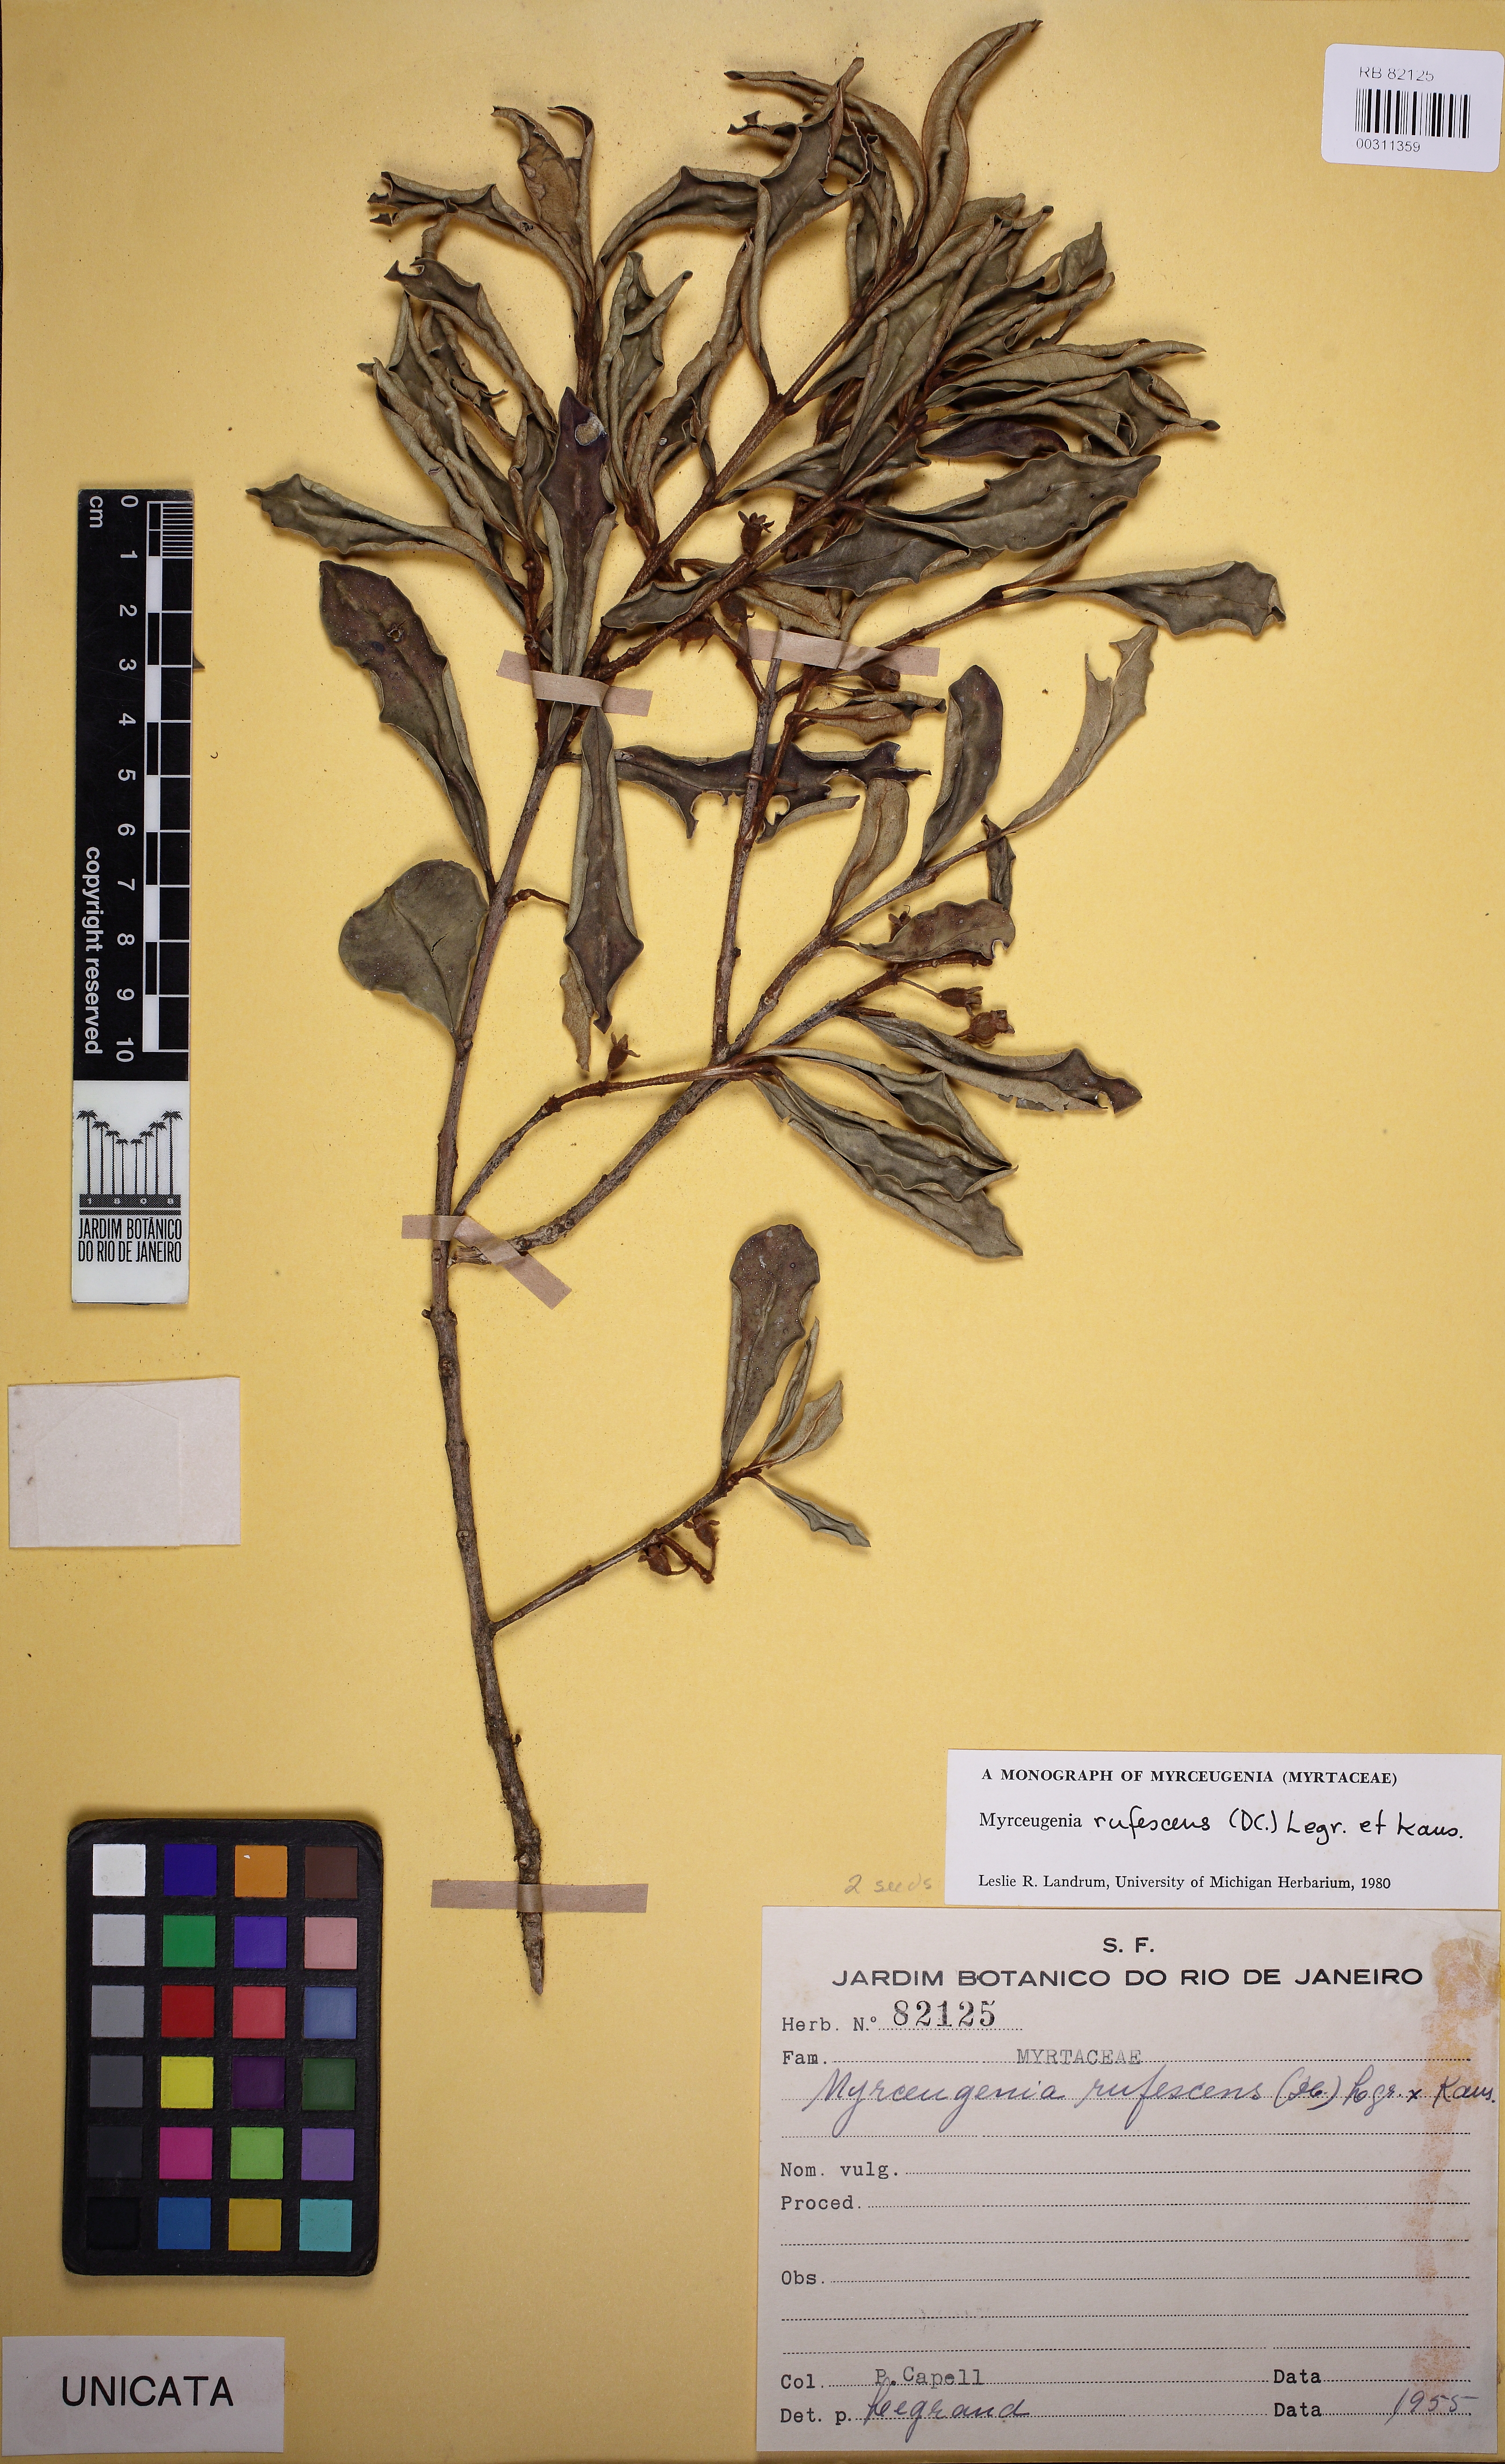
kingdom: Plantae
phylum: Tracheophyta
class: Magnoliopsida
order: Myrtales
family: Myrtaceae
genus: Myrceugenia
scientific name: Myrceugenia rufescens
